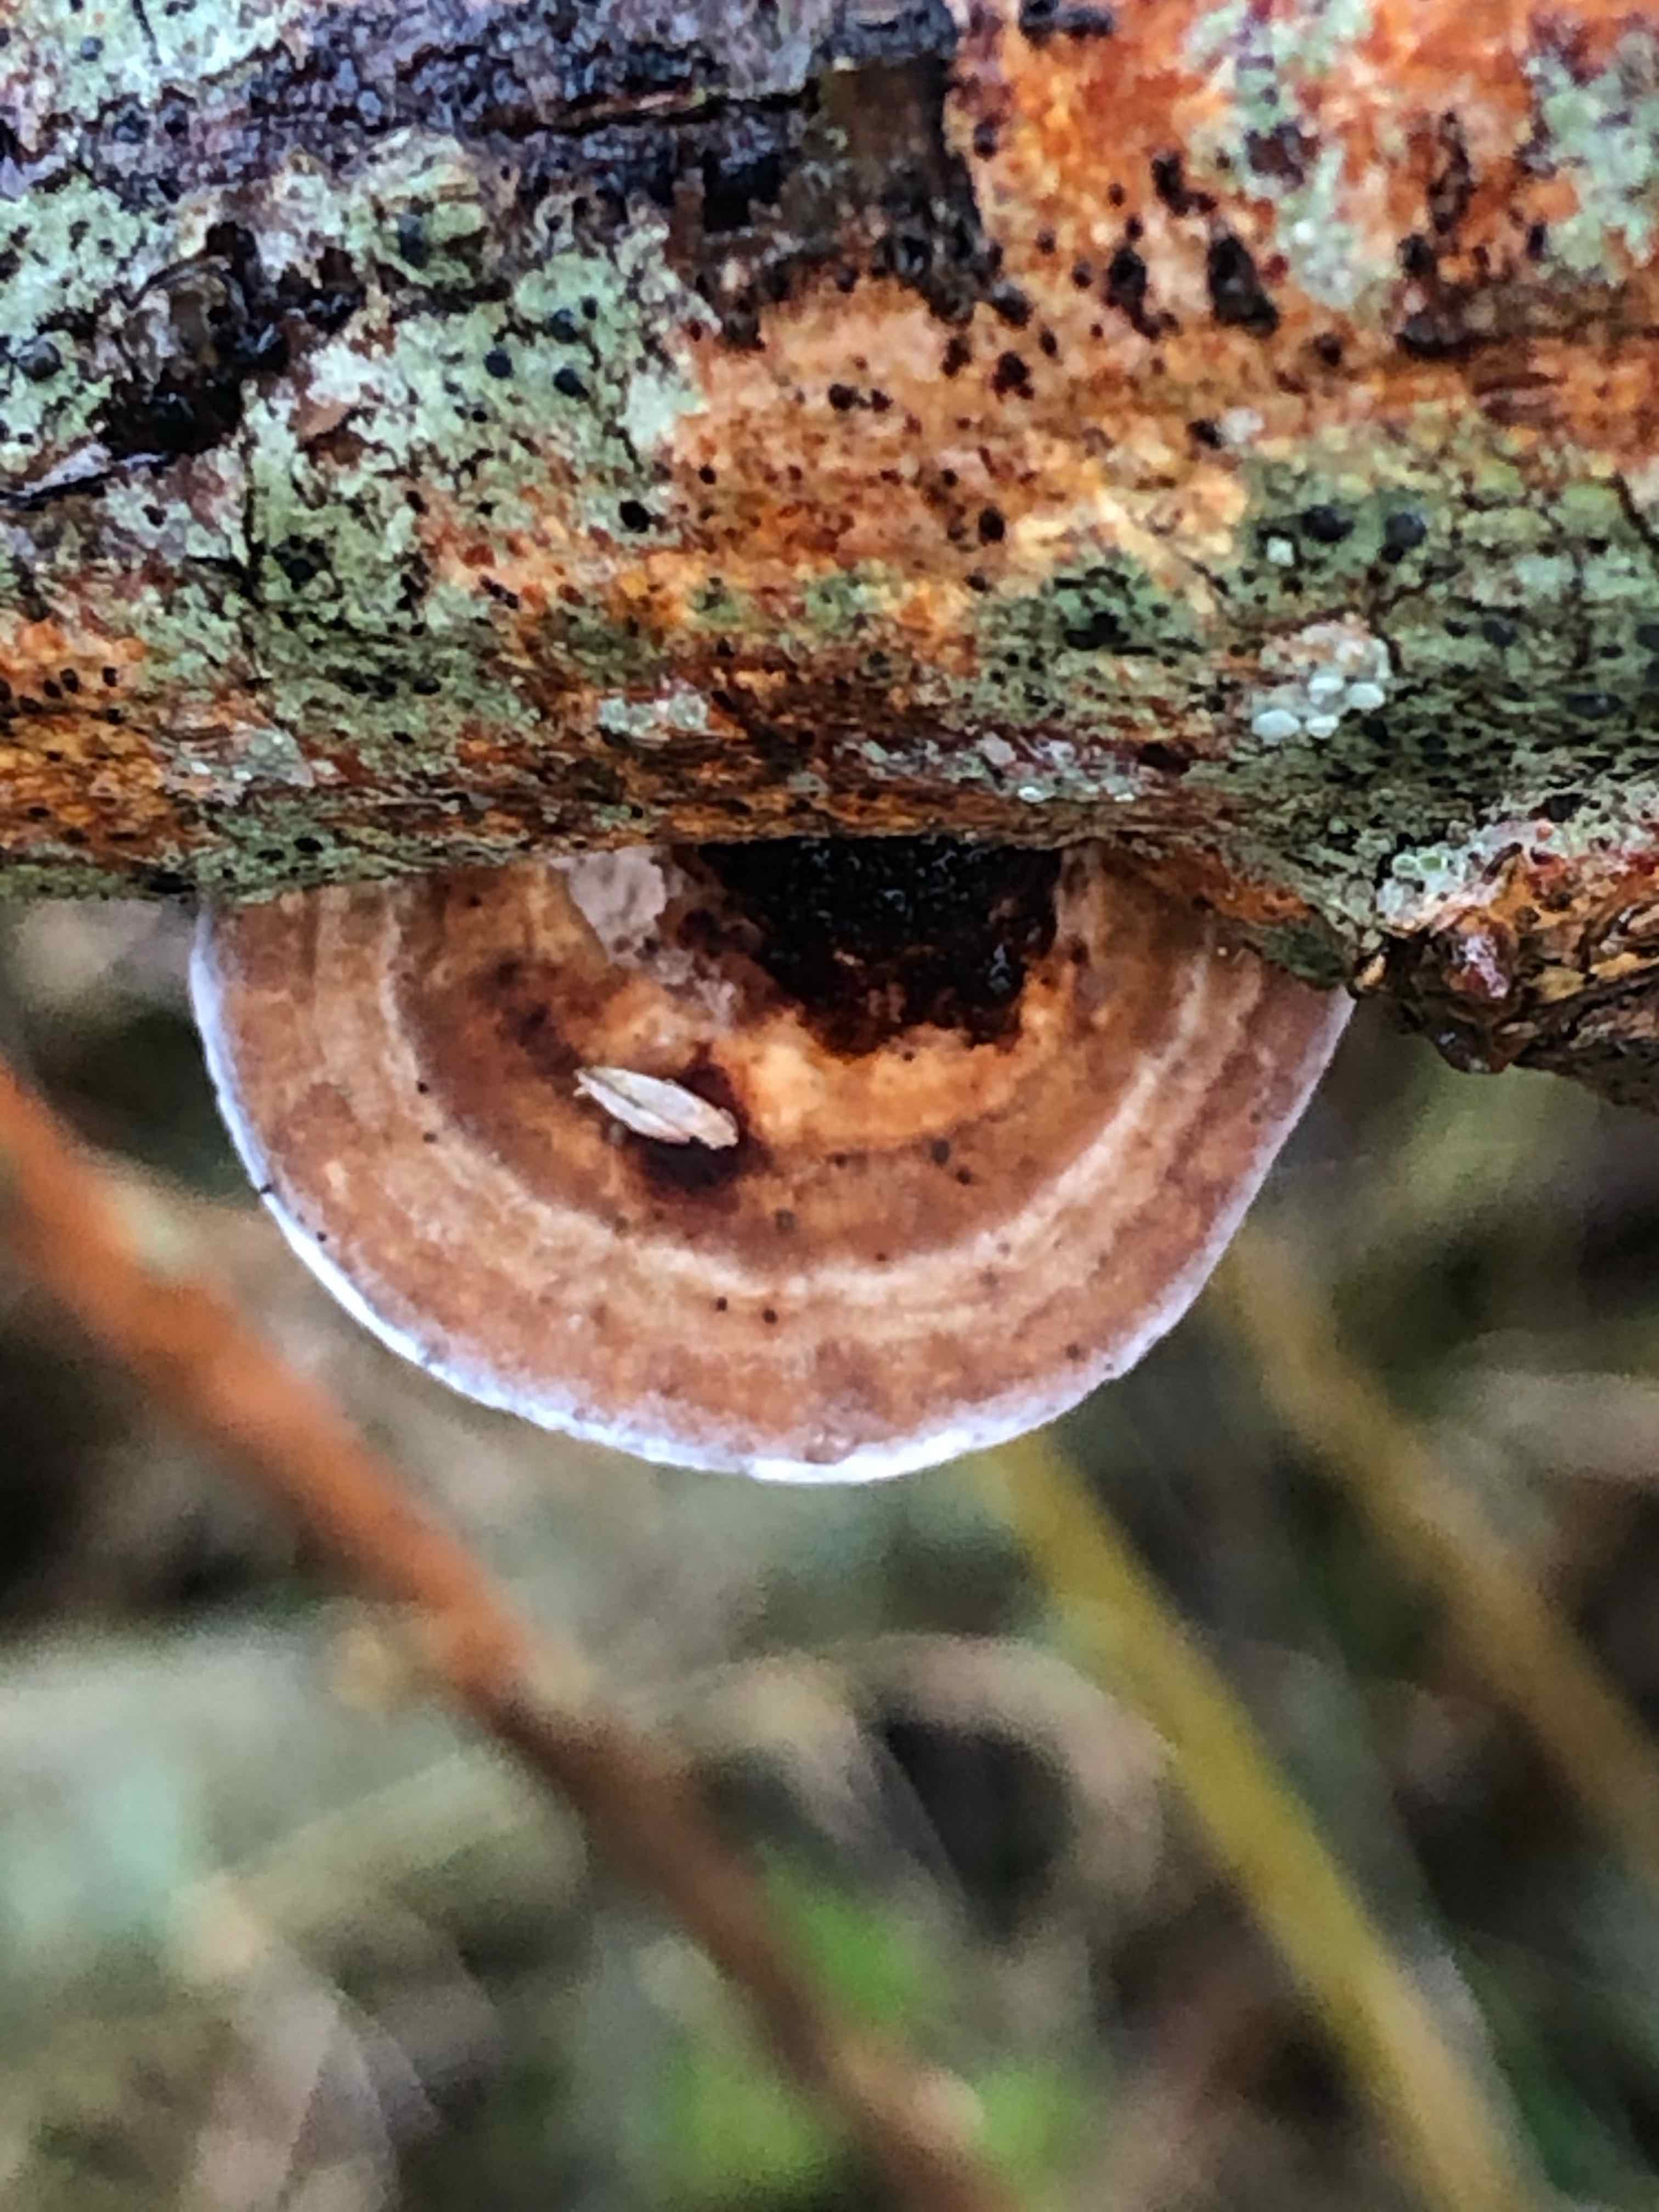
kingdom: Fungi
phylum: Basidiomycota
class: Agaricomycetes
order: Polyporales
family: Polyporaceae
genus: Daedaleopsis
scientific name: Daedaleopsis confragosa
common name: rødmende læderporesvamp
